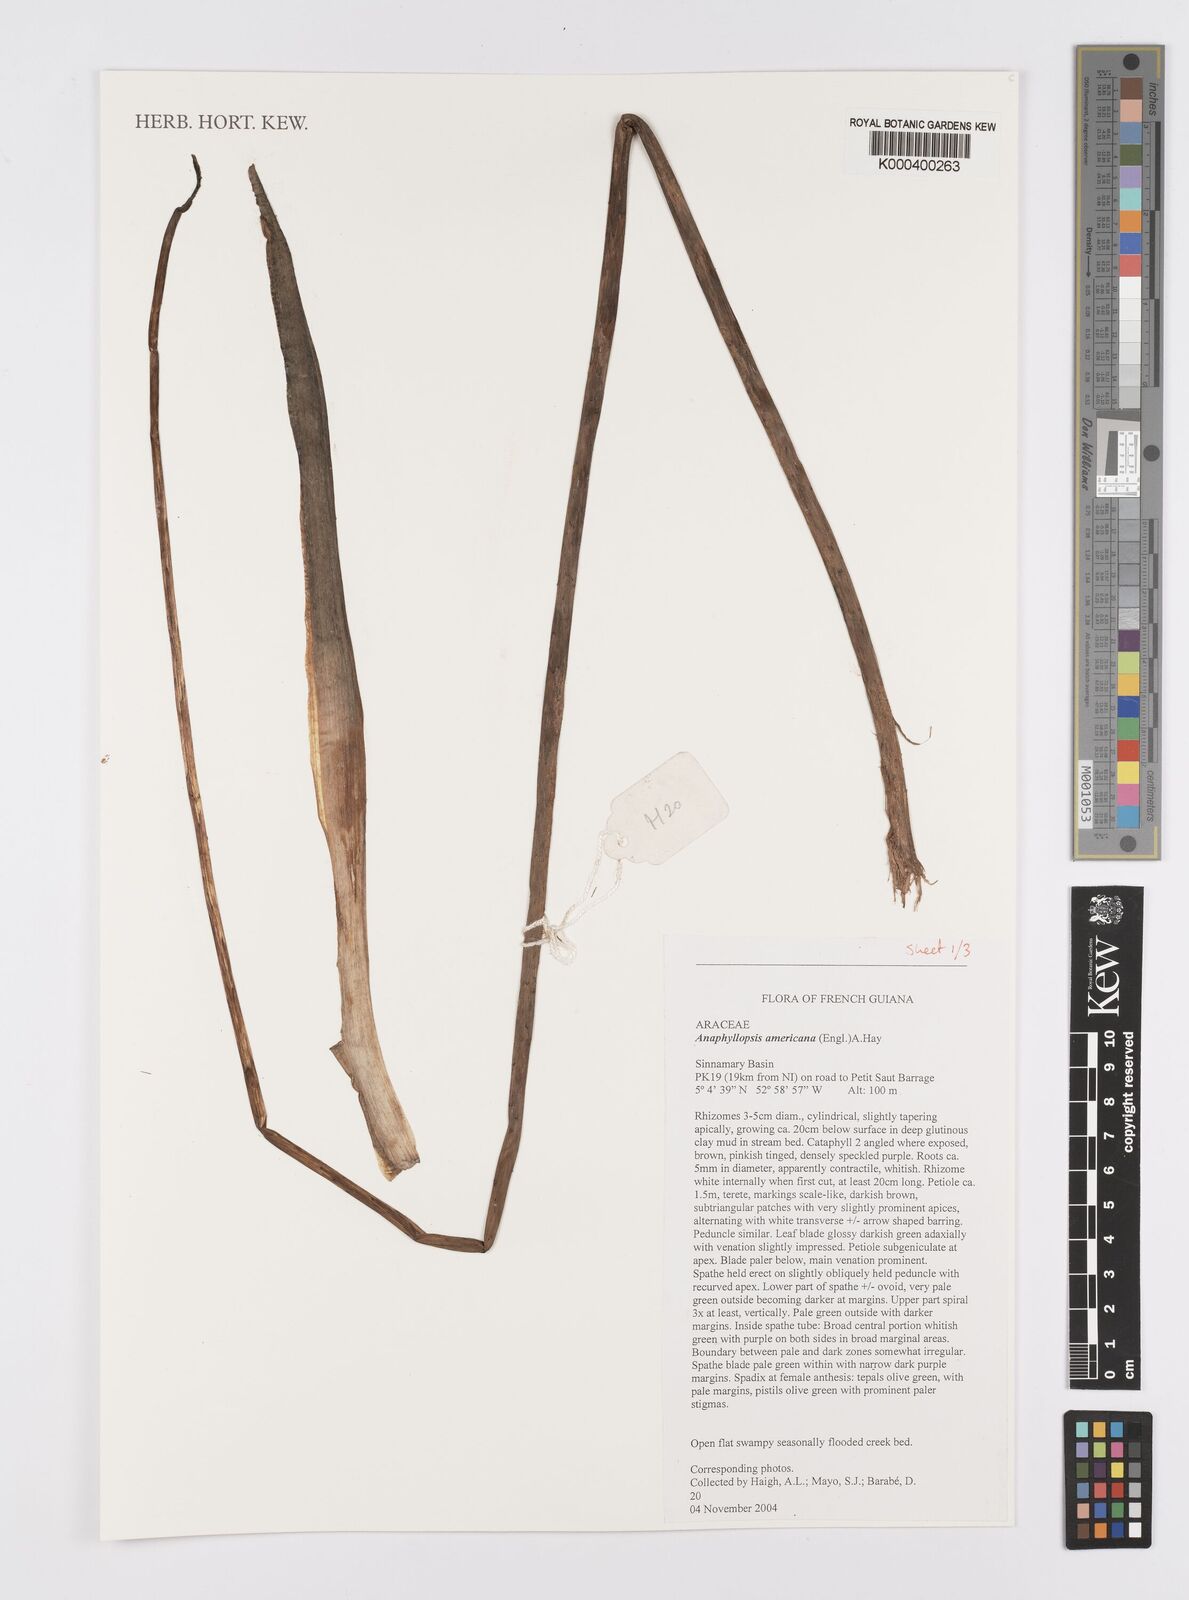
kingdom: Plantae
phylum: Tracheophyta
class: Liliopsida
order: Alismatales
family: Araceae
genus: Anaphyllopsis
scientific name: Anaphyllopsis americana
